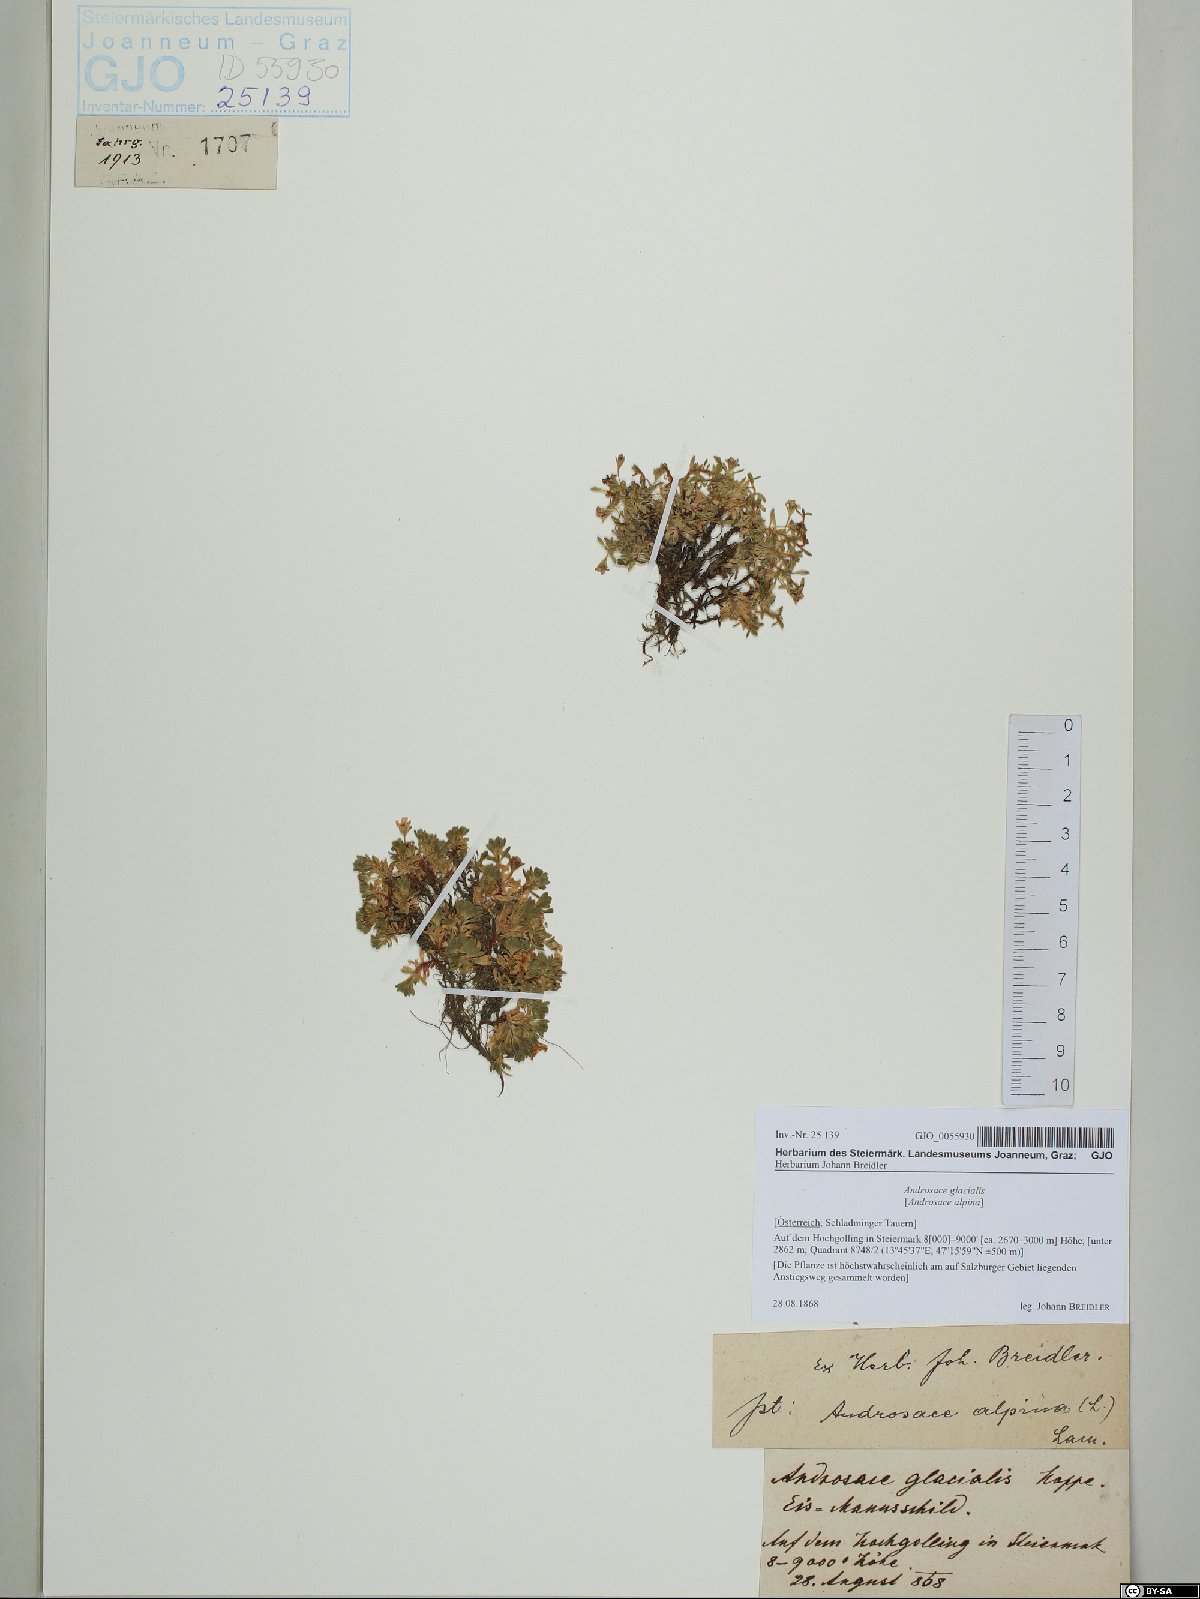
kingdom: Plantae
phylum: Tracheophyta
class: Magnoliopsida
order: Ericales
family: Primulaceae
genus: Androsace
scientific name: Androsace alpina
